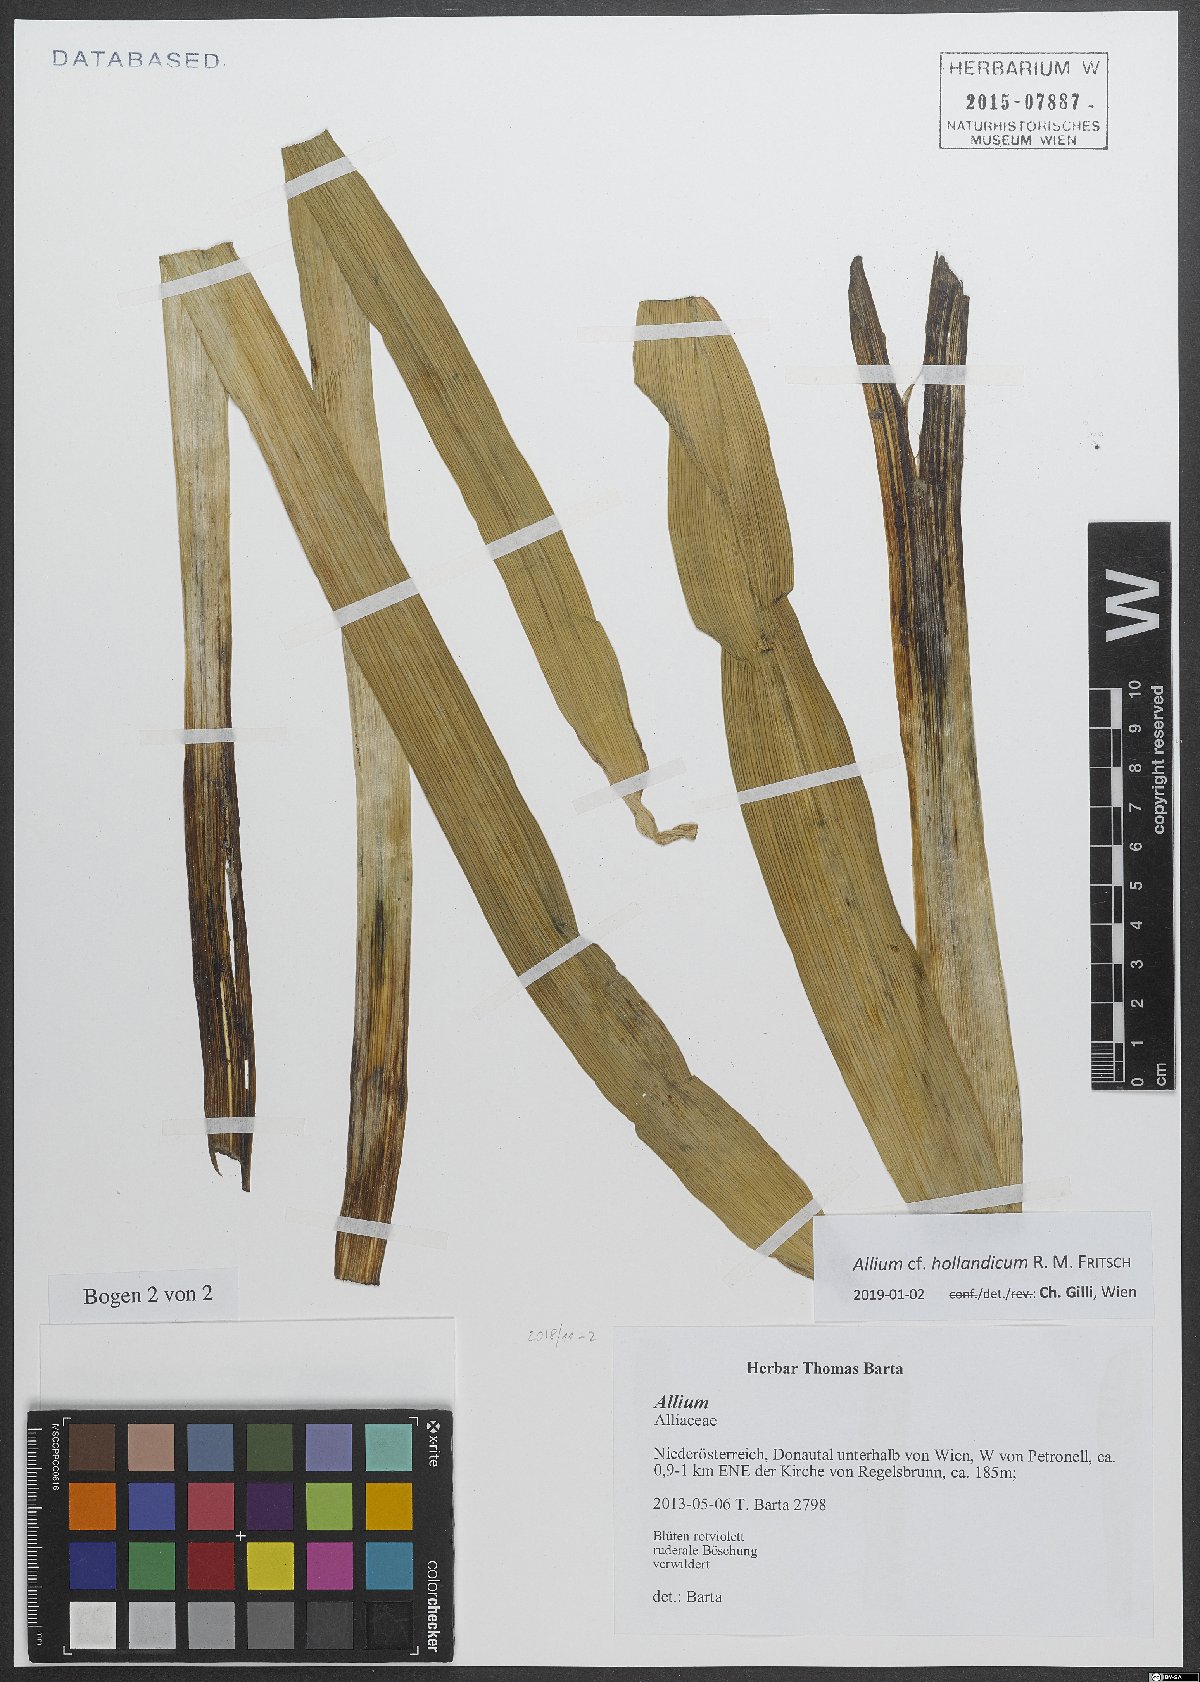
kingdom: Plantae
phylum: Tracheophyta
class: Liliopsida
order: Asparagales
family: Amaryllidaceae
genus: Allium
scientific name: Allium hollandicum
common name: Persian onion
